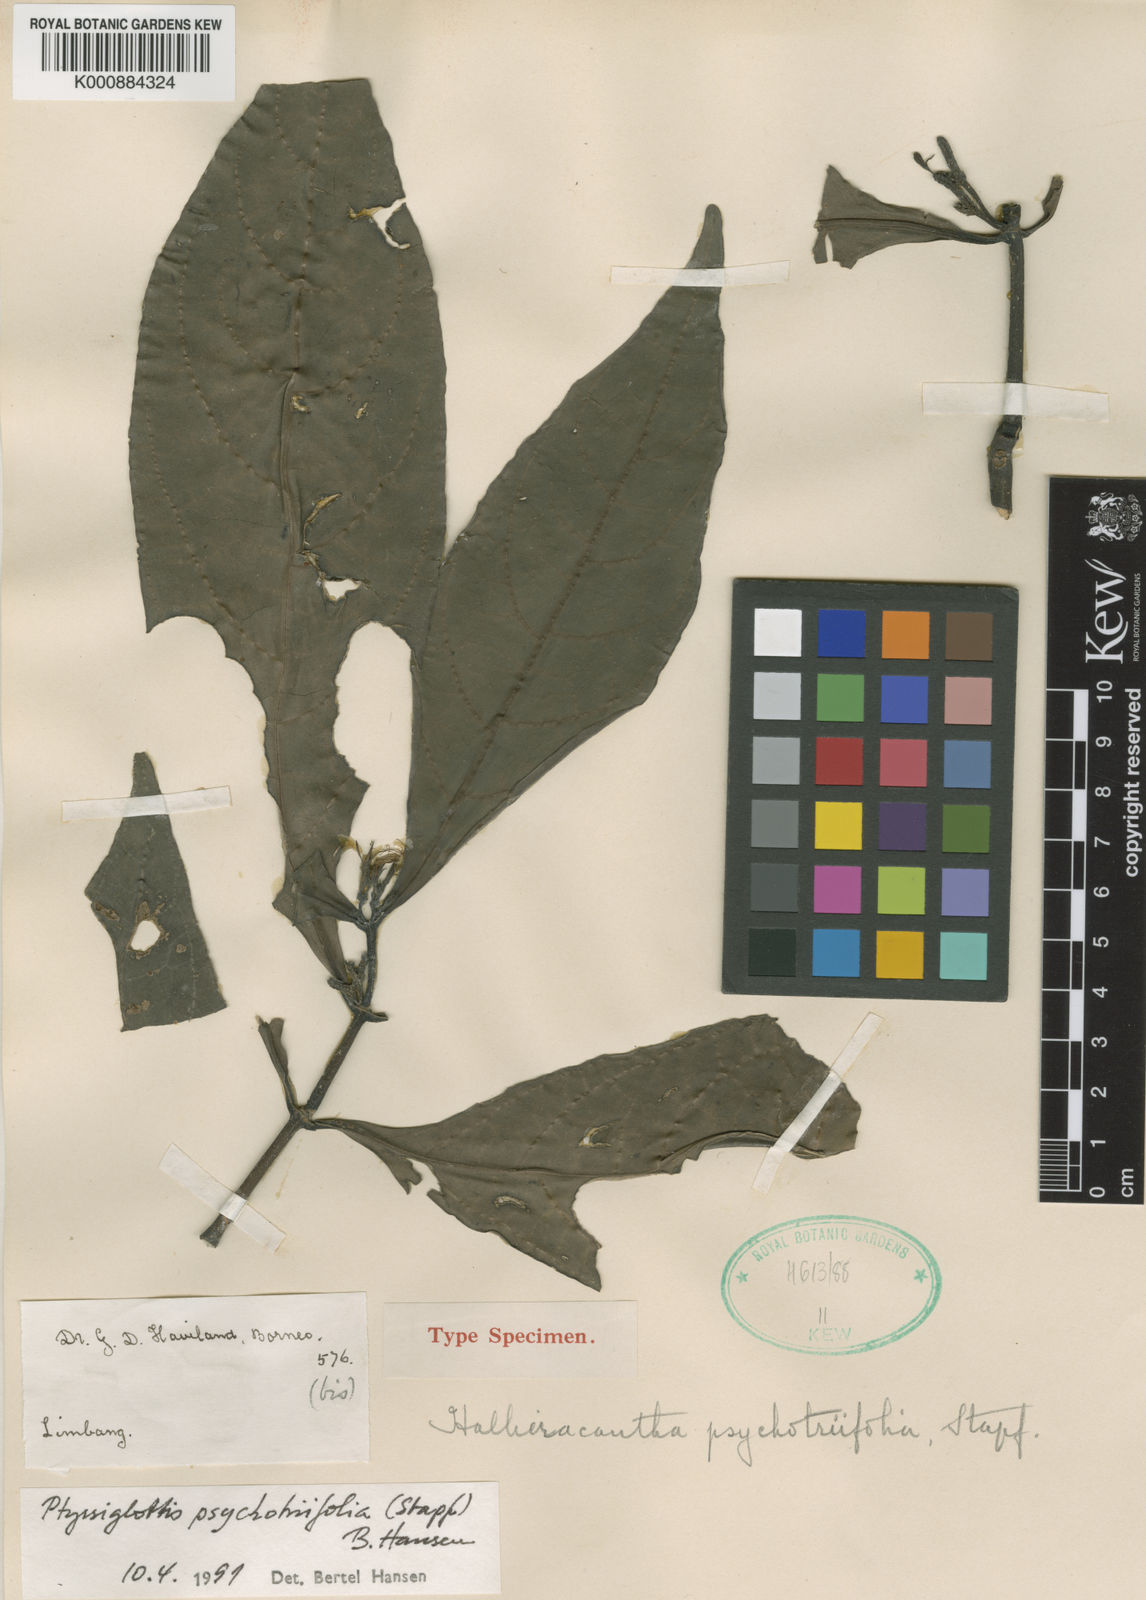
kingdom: Plantae
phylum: Tracheophyta
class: Magnoliopsida
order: Lamiales
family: Acanthaceae
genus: Ptyssiglottis
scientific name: Ptyssiglottis psychotriifolia
